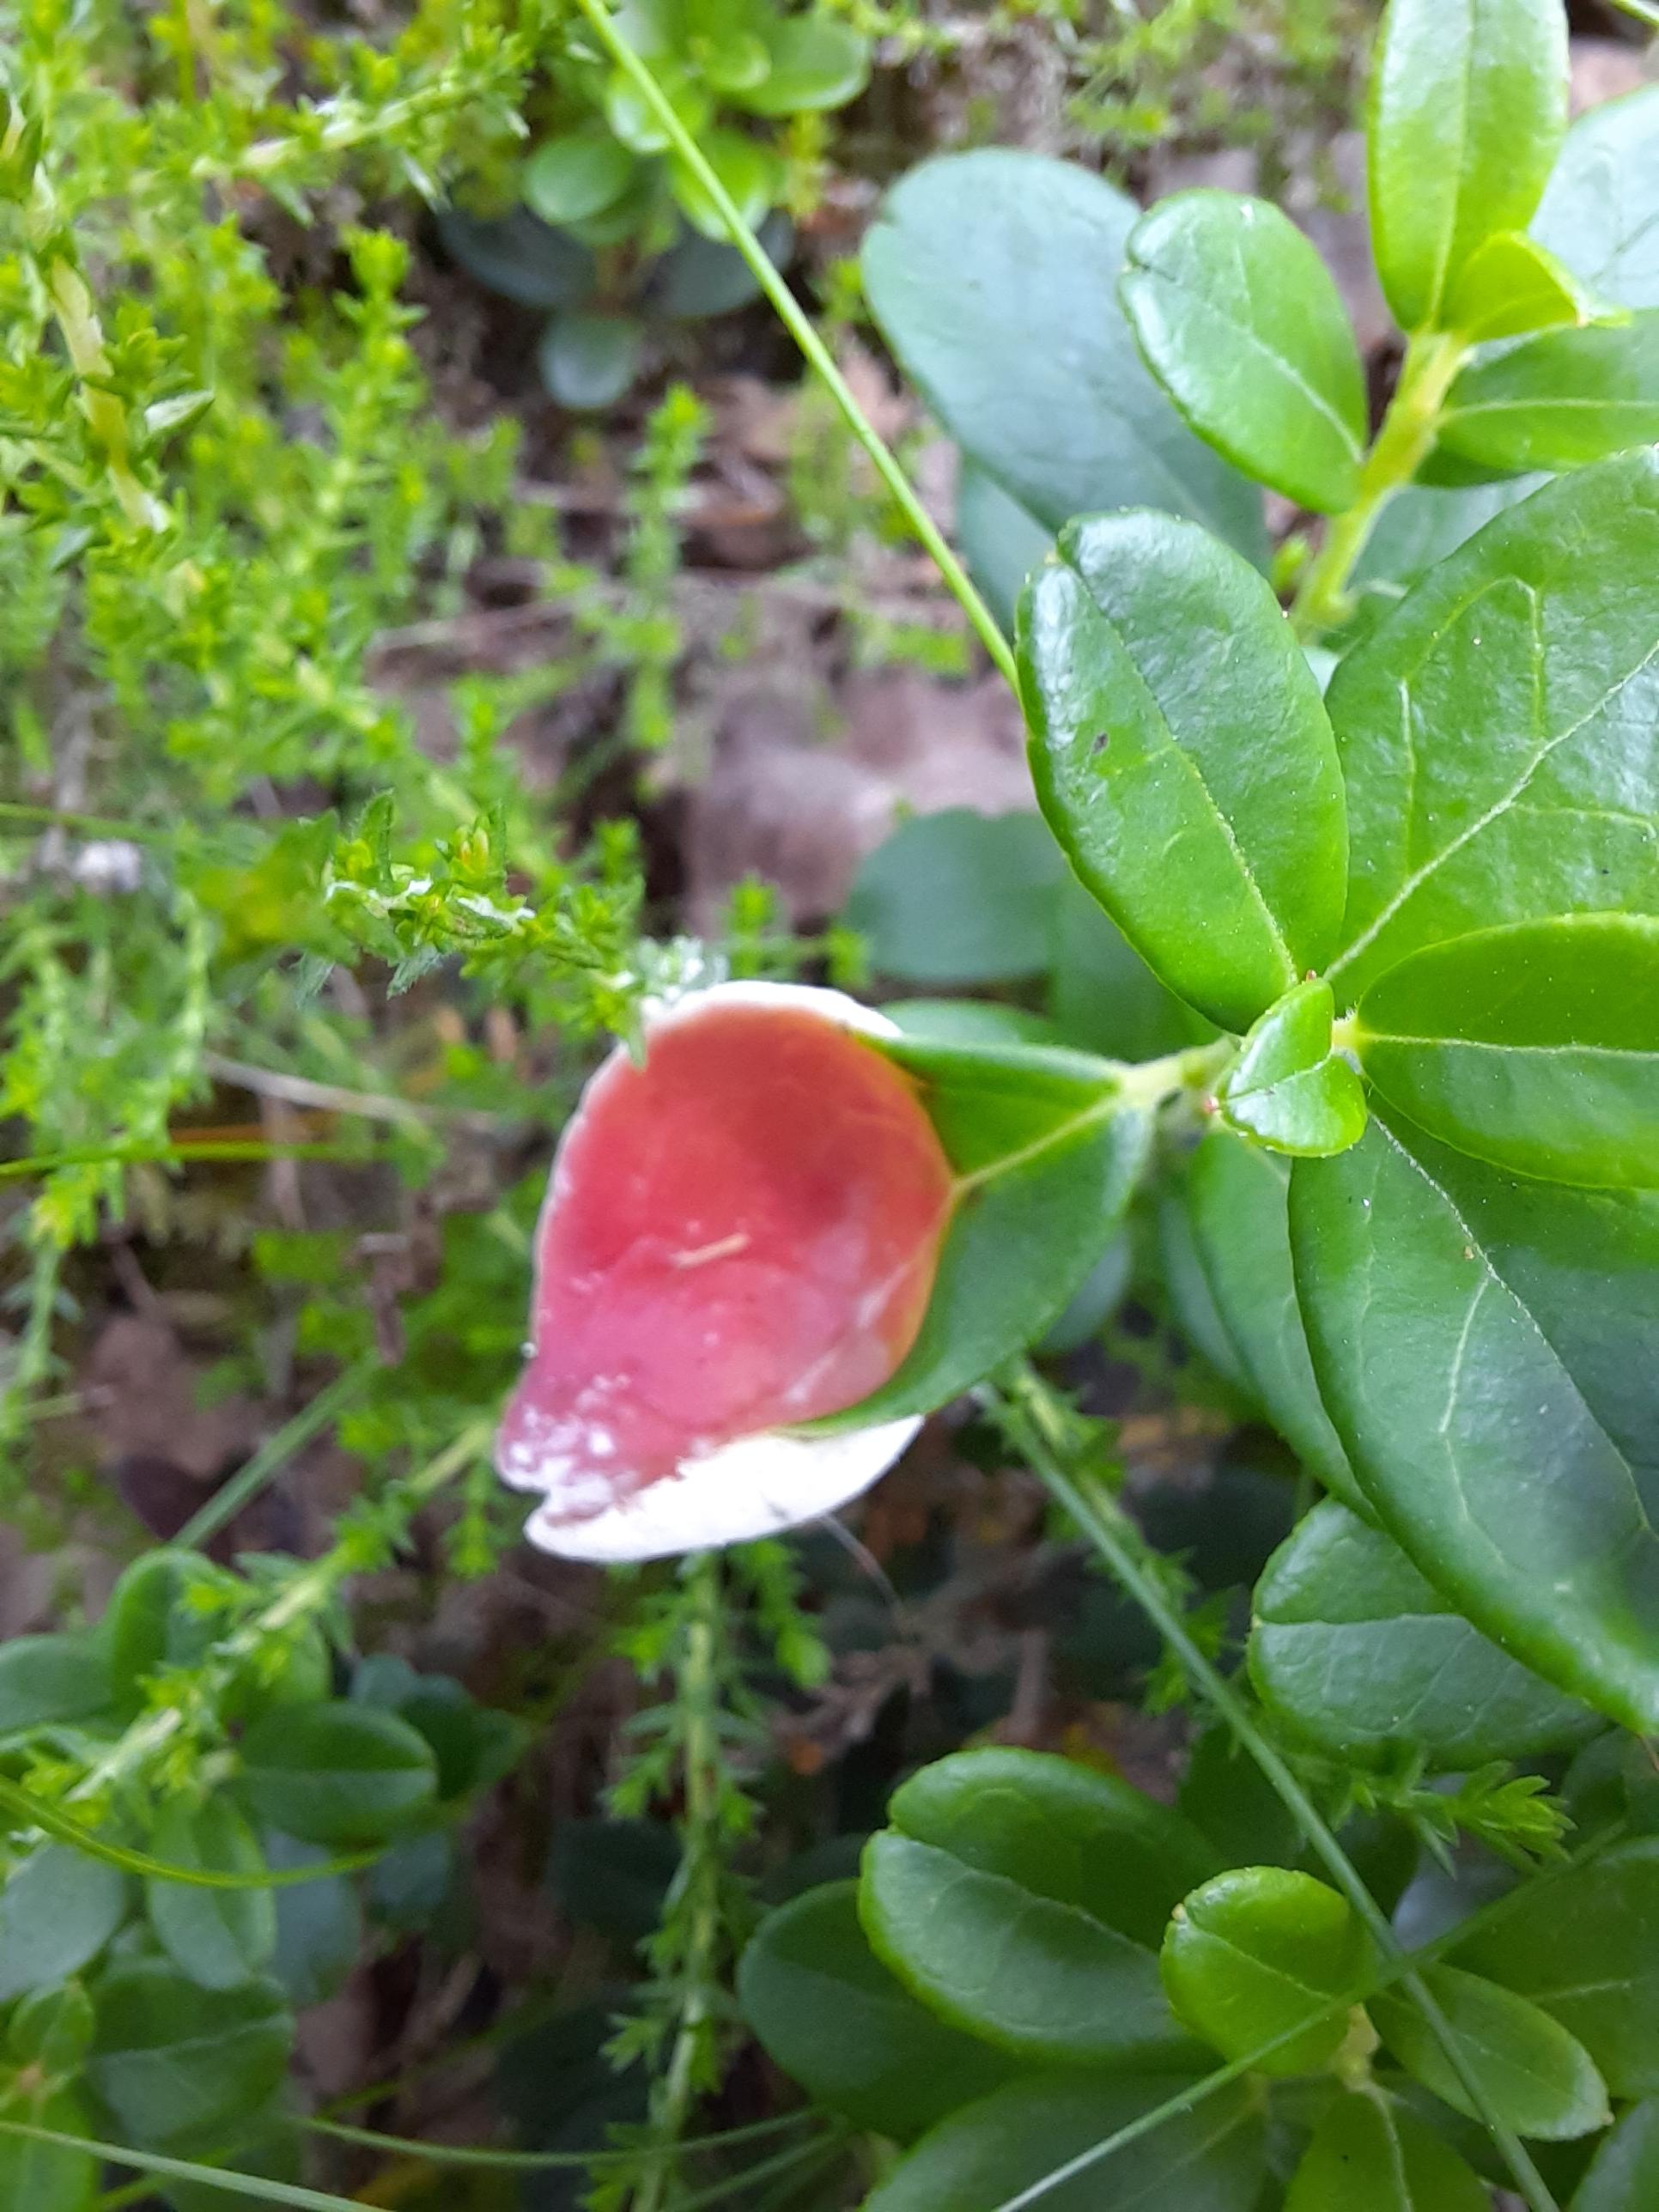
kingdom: Fungi
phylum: Basidiomycota
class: Exobasidiomycetes
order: Exobasidiales
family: Exobasidiaceae
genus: Exobasidium
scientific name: Exobasidium vaccinii
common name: tyttebærblad-bøllesvamp
